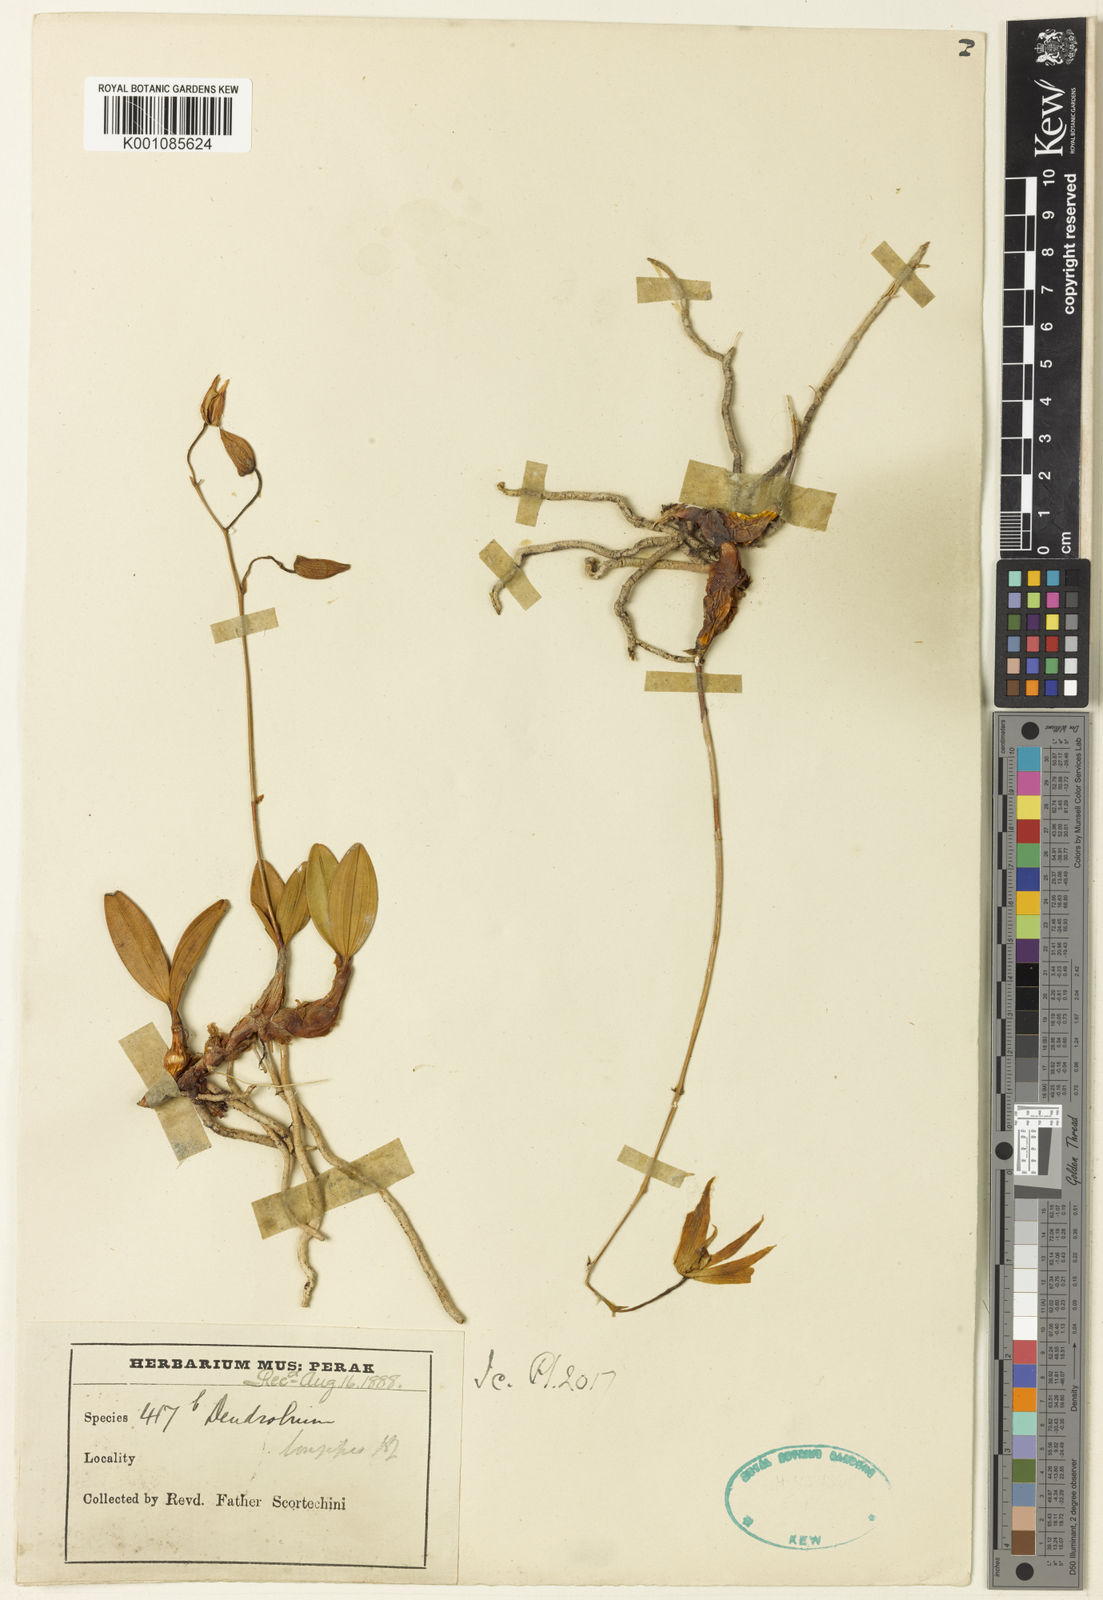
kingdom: Plantae
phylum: Tracheophyta
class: Liliopsida
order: Asparagales
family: Orchidaceae
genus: Dendrobium
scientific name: Dendrobium longipes
